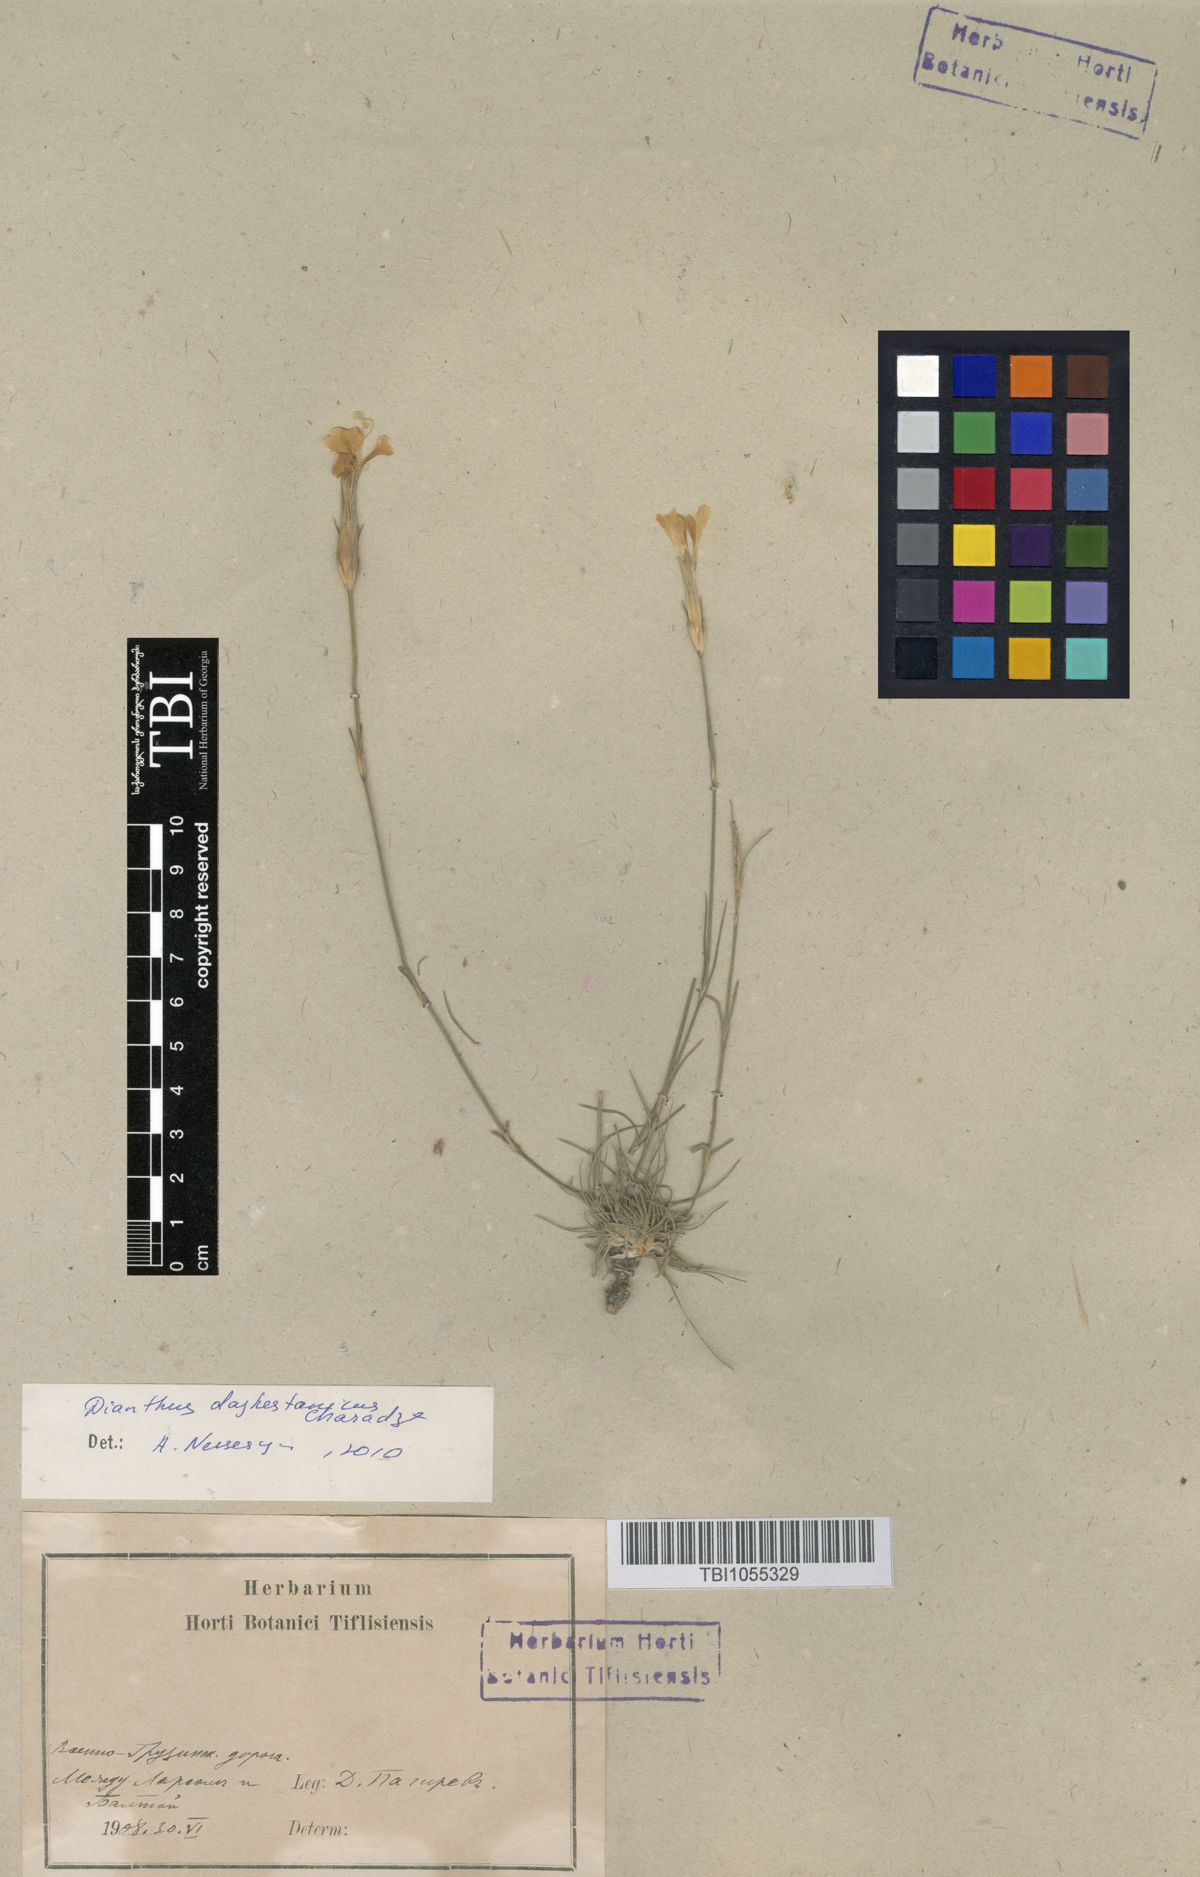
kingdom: Plantae
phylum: Tracheophyta
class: Magnoliopsida
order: Caryophyllales
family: Caryophyllaceae
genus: Dianthus
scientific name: Dianthus cretaceus
